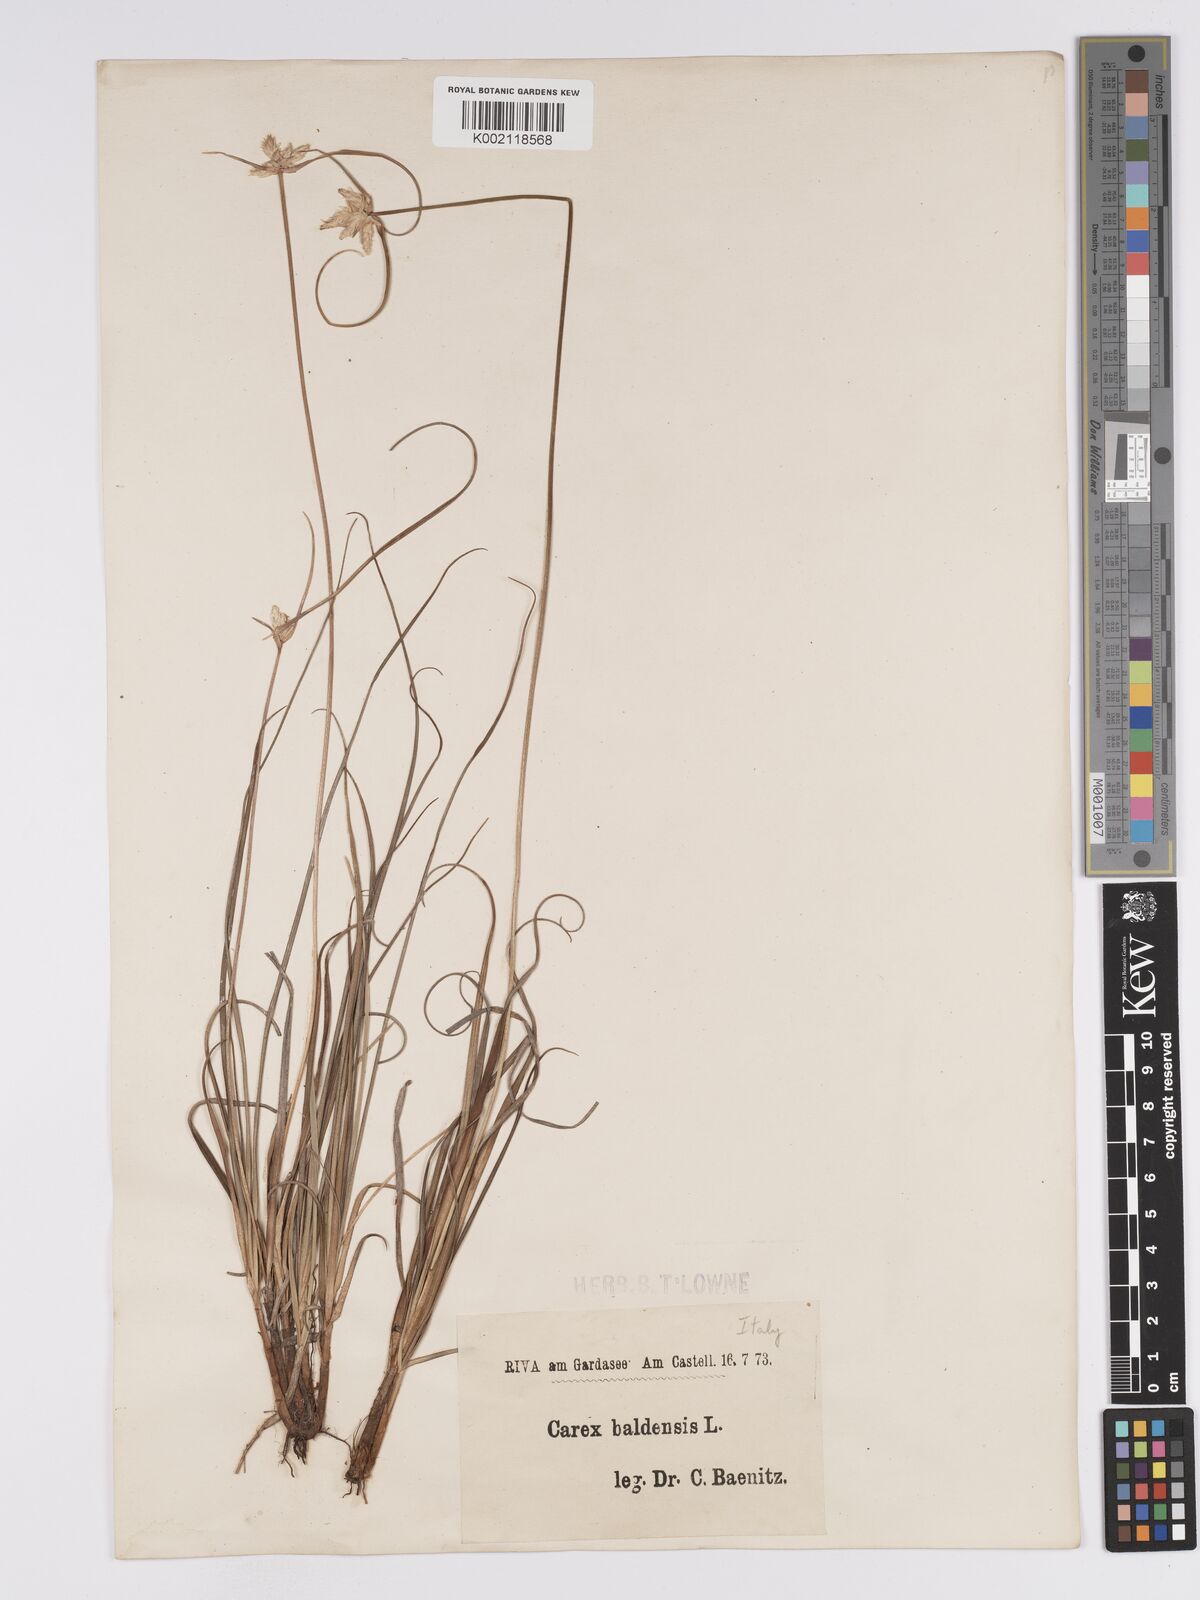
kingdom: Plantae
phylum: Tracheophyta
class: Liliopsida
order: Poales
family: Cyperaceae
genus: Carex
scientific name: Carex baldensis
